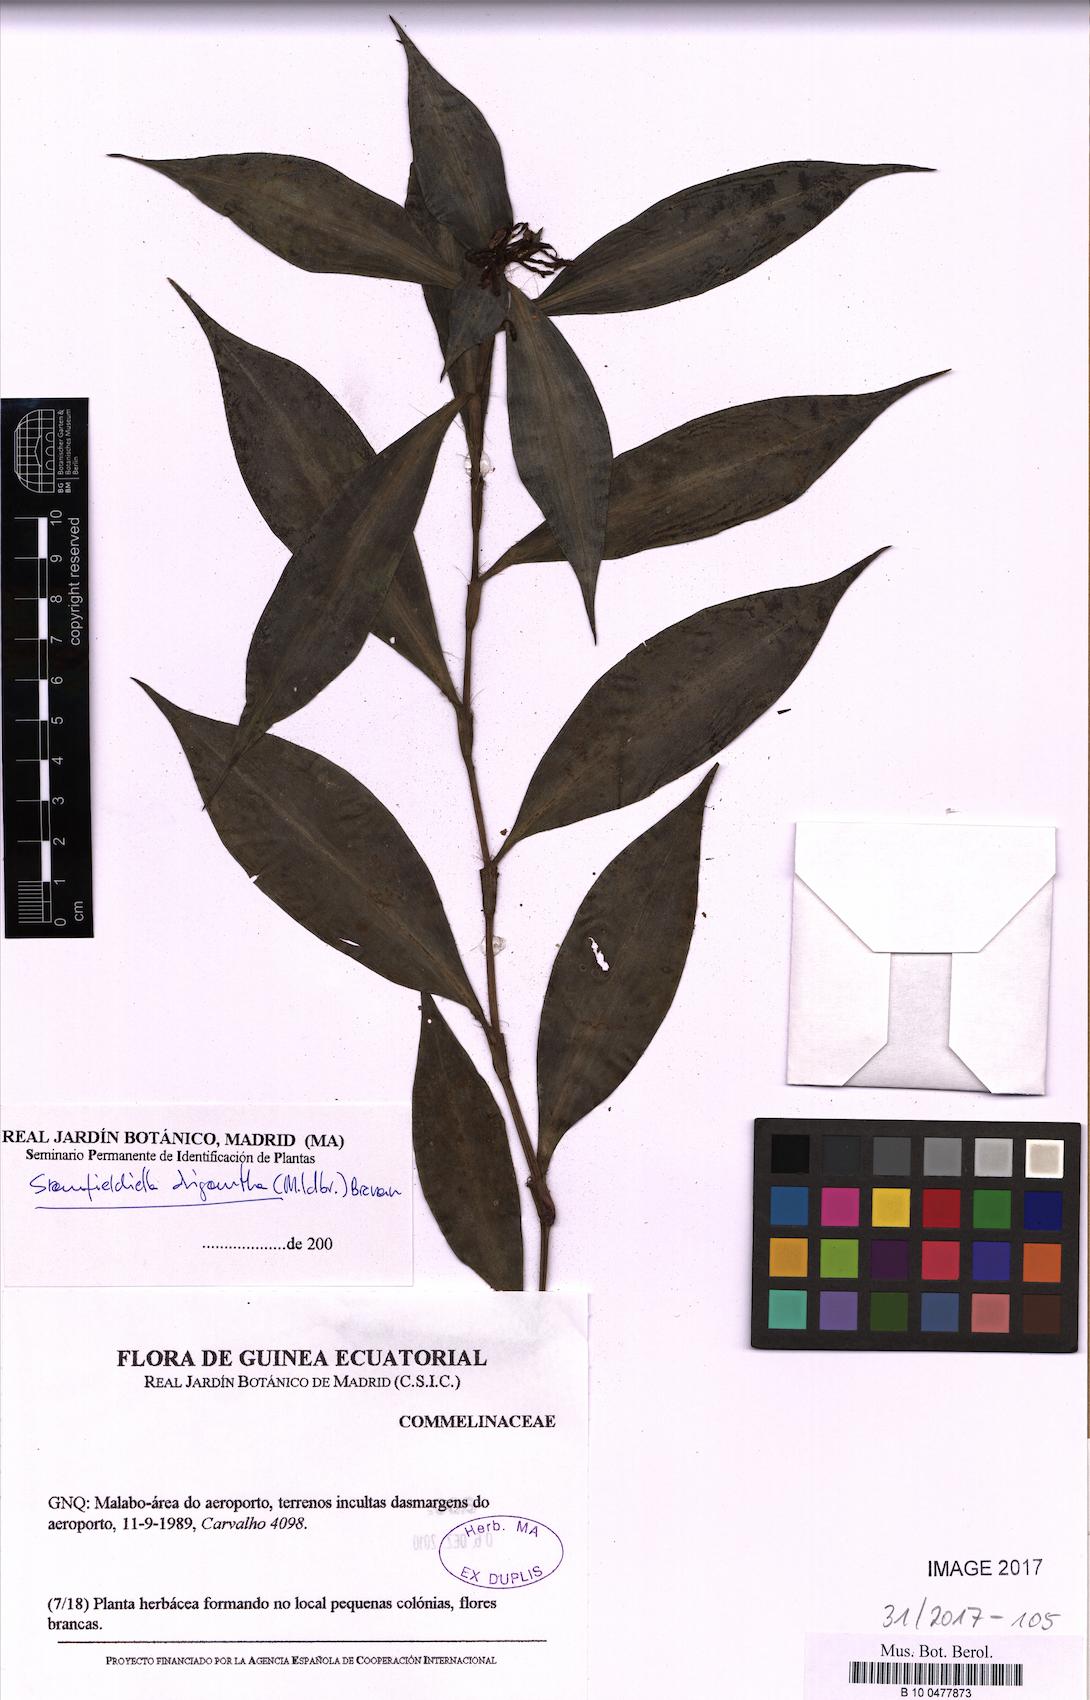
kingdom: Plantae
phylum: Tracheophyta
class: Liliopsida
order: Commelinales
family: Commelinaceae
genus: Stanfieldiella
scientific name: Stanfieldiella oligantha
